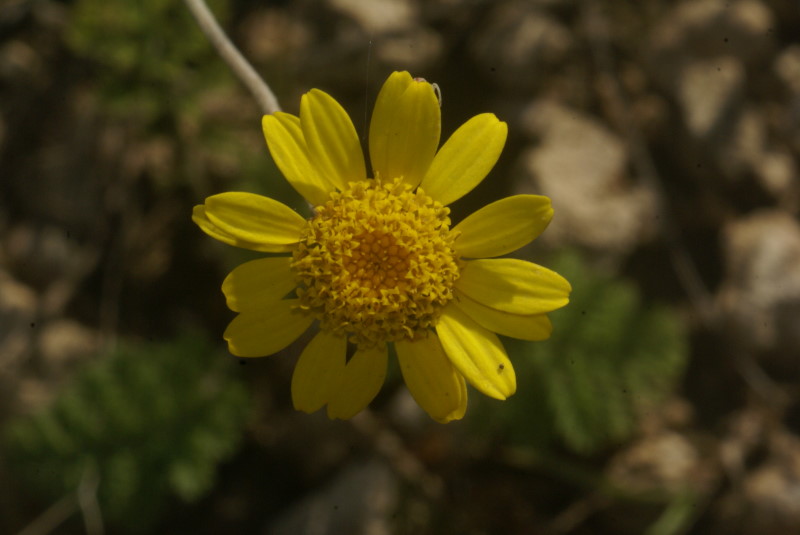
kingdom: Plantae
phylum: Tracheophyta
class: Magnoliopsida
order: Asterales
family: Asteraceae
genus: Cota
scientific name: Cota tinctoria
